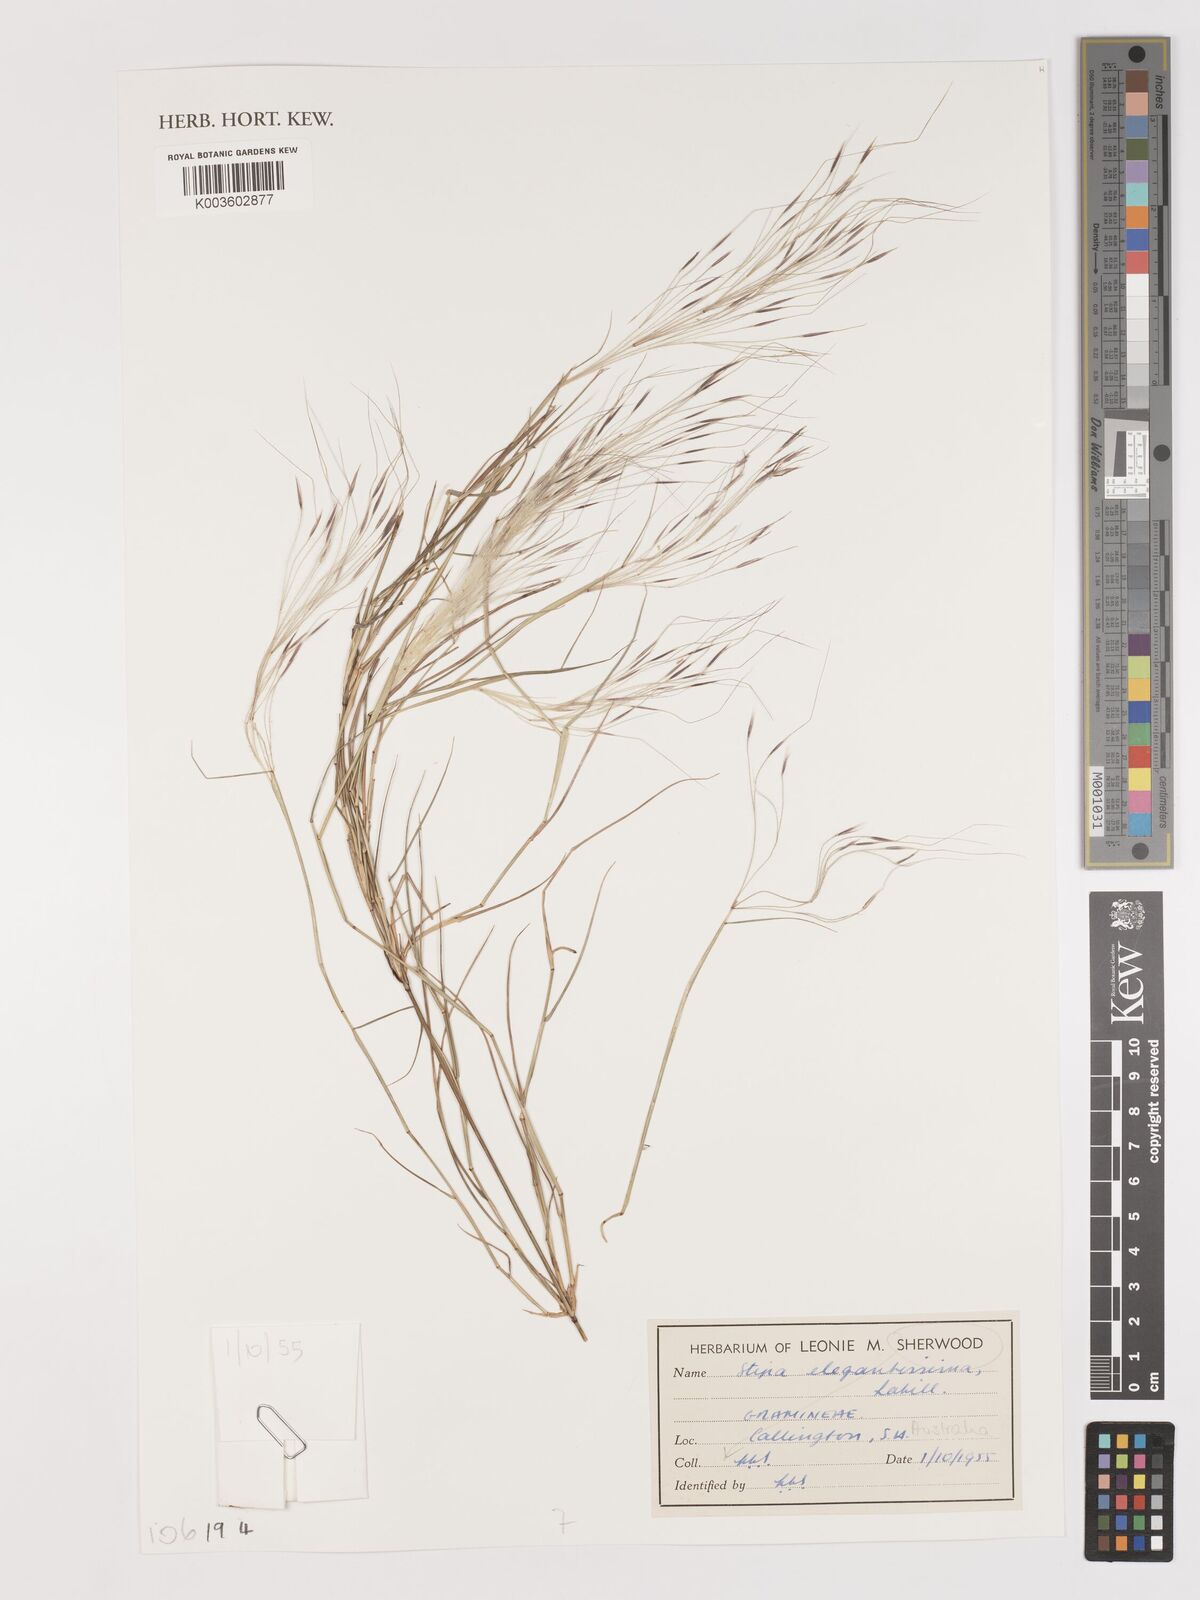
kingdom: Plantae
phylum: Tracheophyta
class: Liliopsida
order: Poales
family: Poaceae
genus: Austrostipa
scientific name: Austrostipa elegantissima
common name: Feather spear grass
